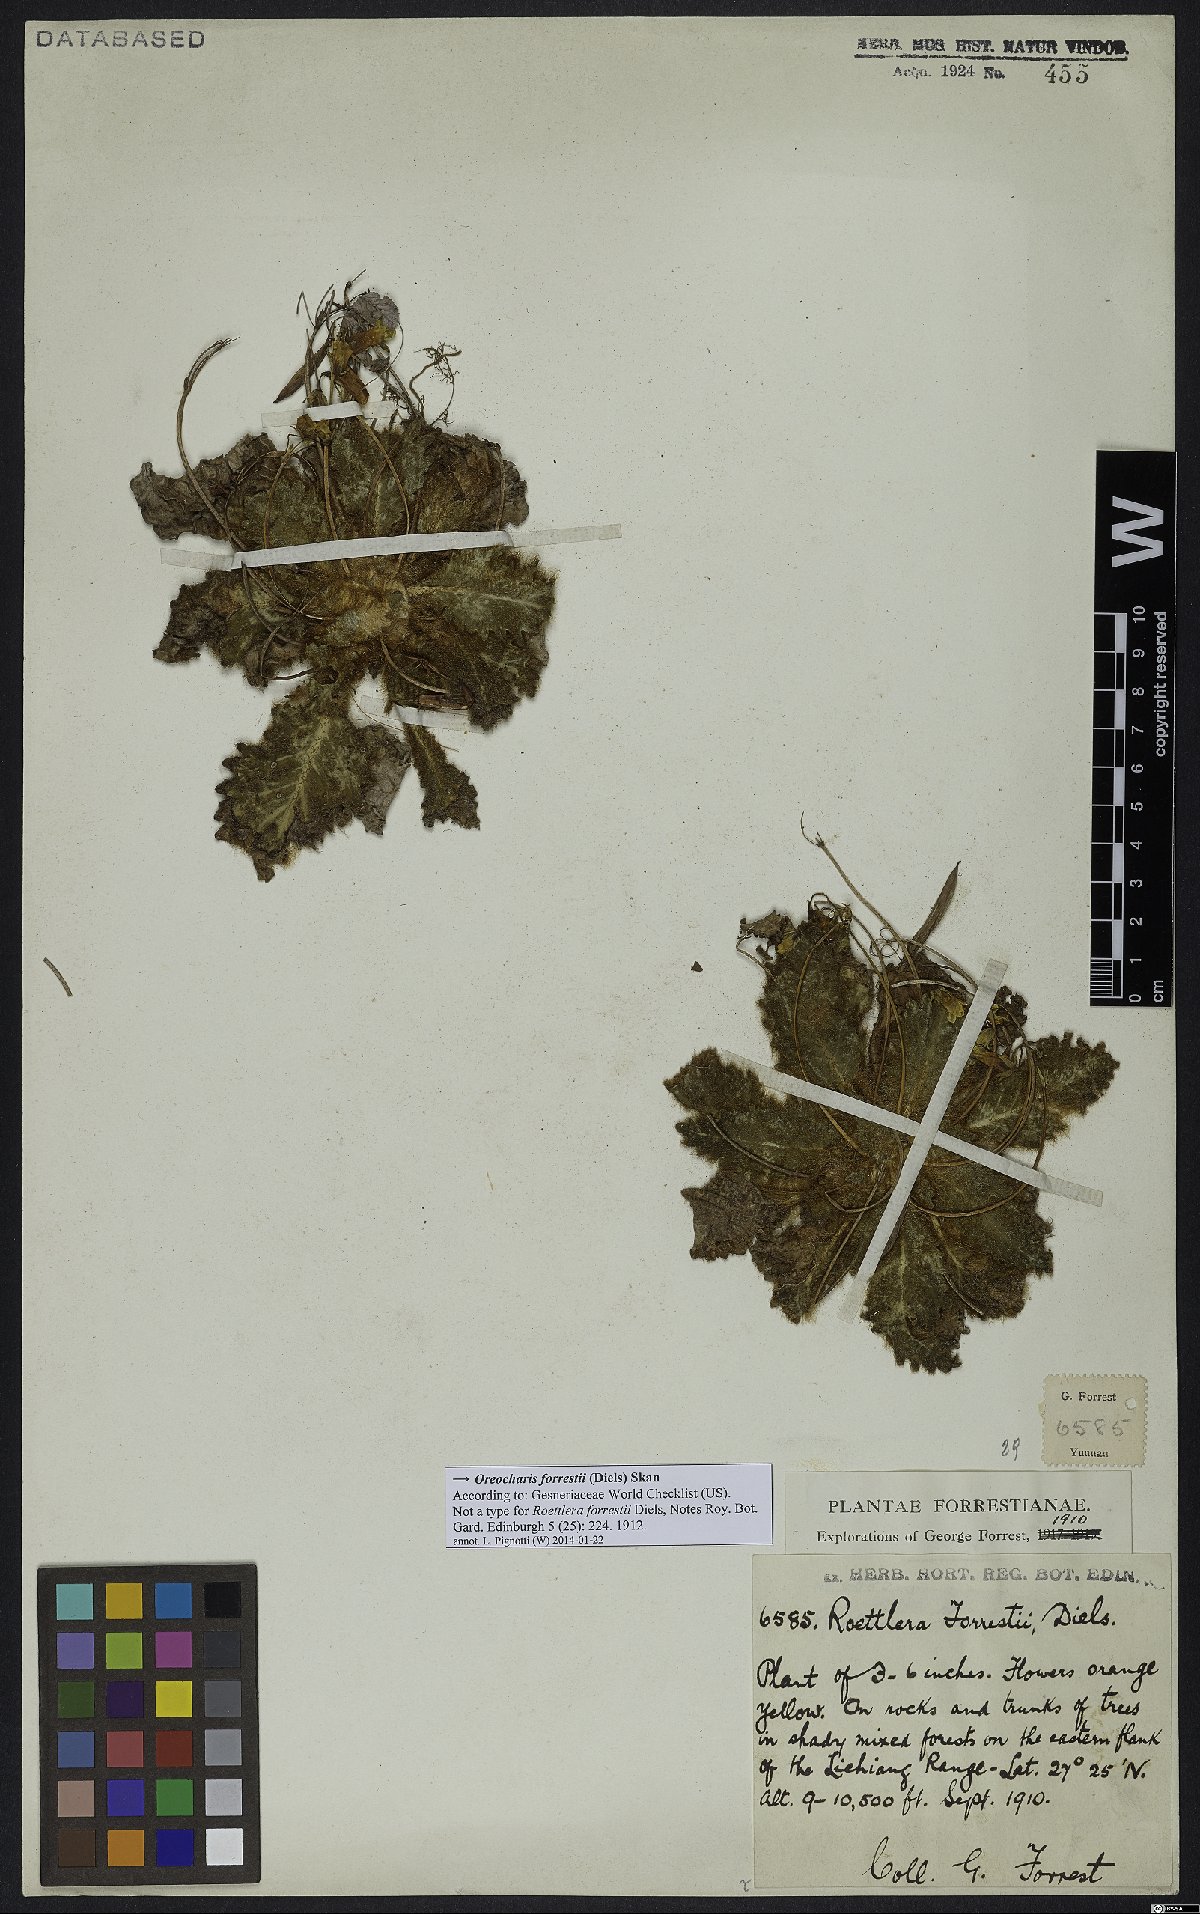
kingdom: Plantae
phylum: Tracheophyta
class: Magnoliopsida
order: Lamiales
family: Gesneriaceae
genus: Oreocharis
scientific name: Oreocharis forrestii
